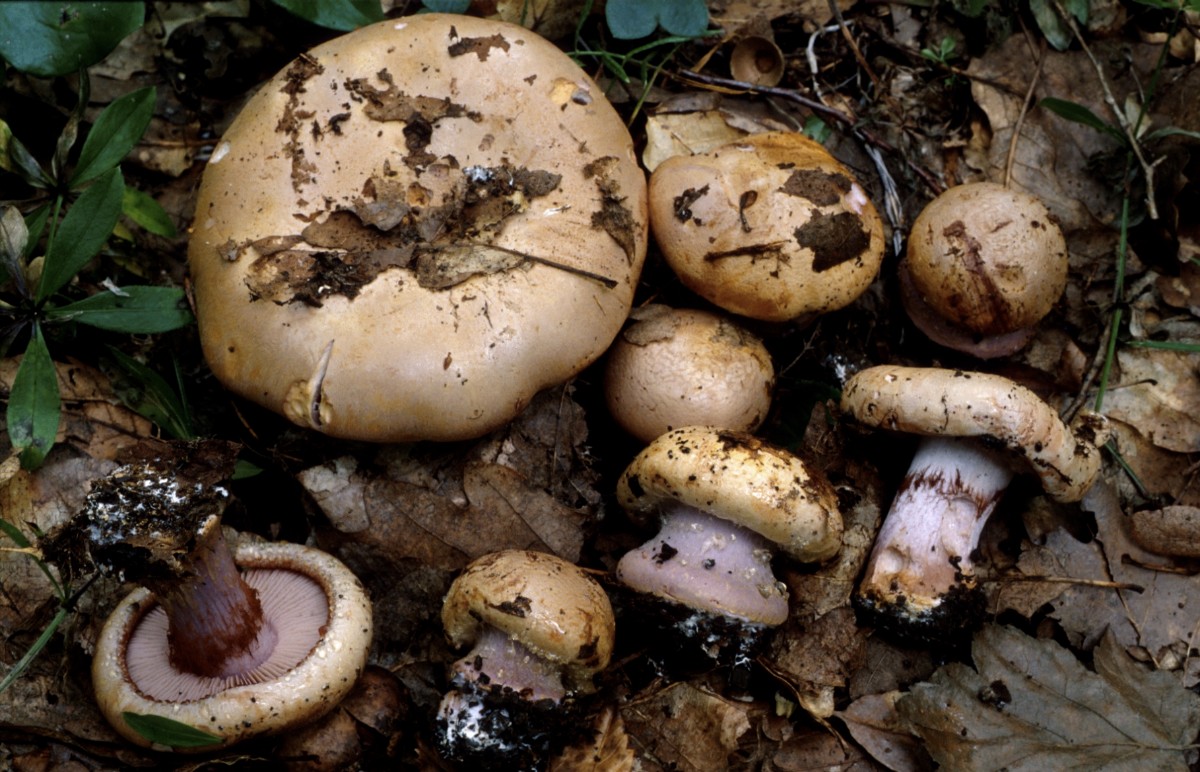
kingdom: Fungi
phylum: Basidiomycota
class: Agaricomycetes
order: Agaricales
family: Cortinariaceae
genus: Calonarius
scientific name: Calonarius violaceipes
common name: stedmoder-slørhat
